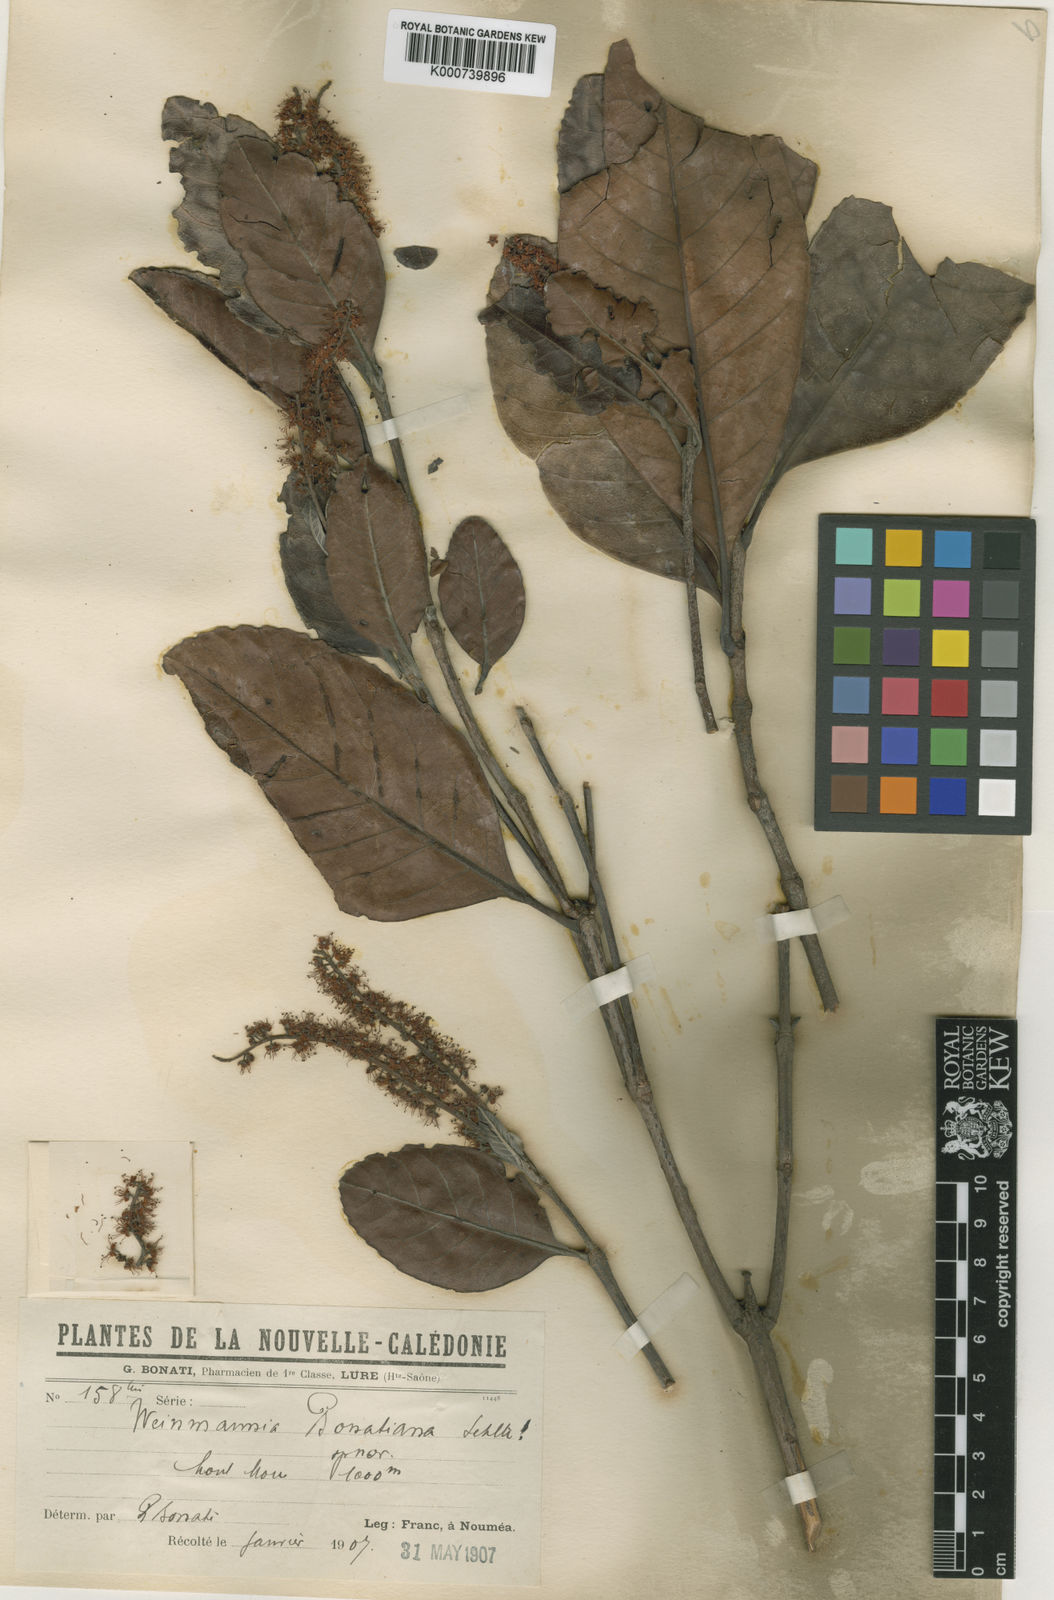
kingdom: Plantae
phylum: Tracheophyta
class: Magnoliopsida
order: Oxalidales
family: Cunoniaceae
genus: Cunonia
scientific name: Cunonia balansae
